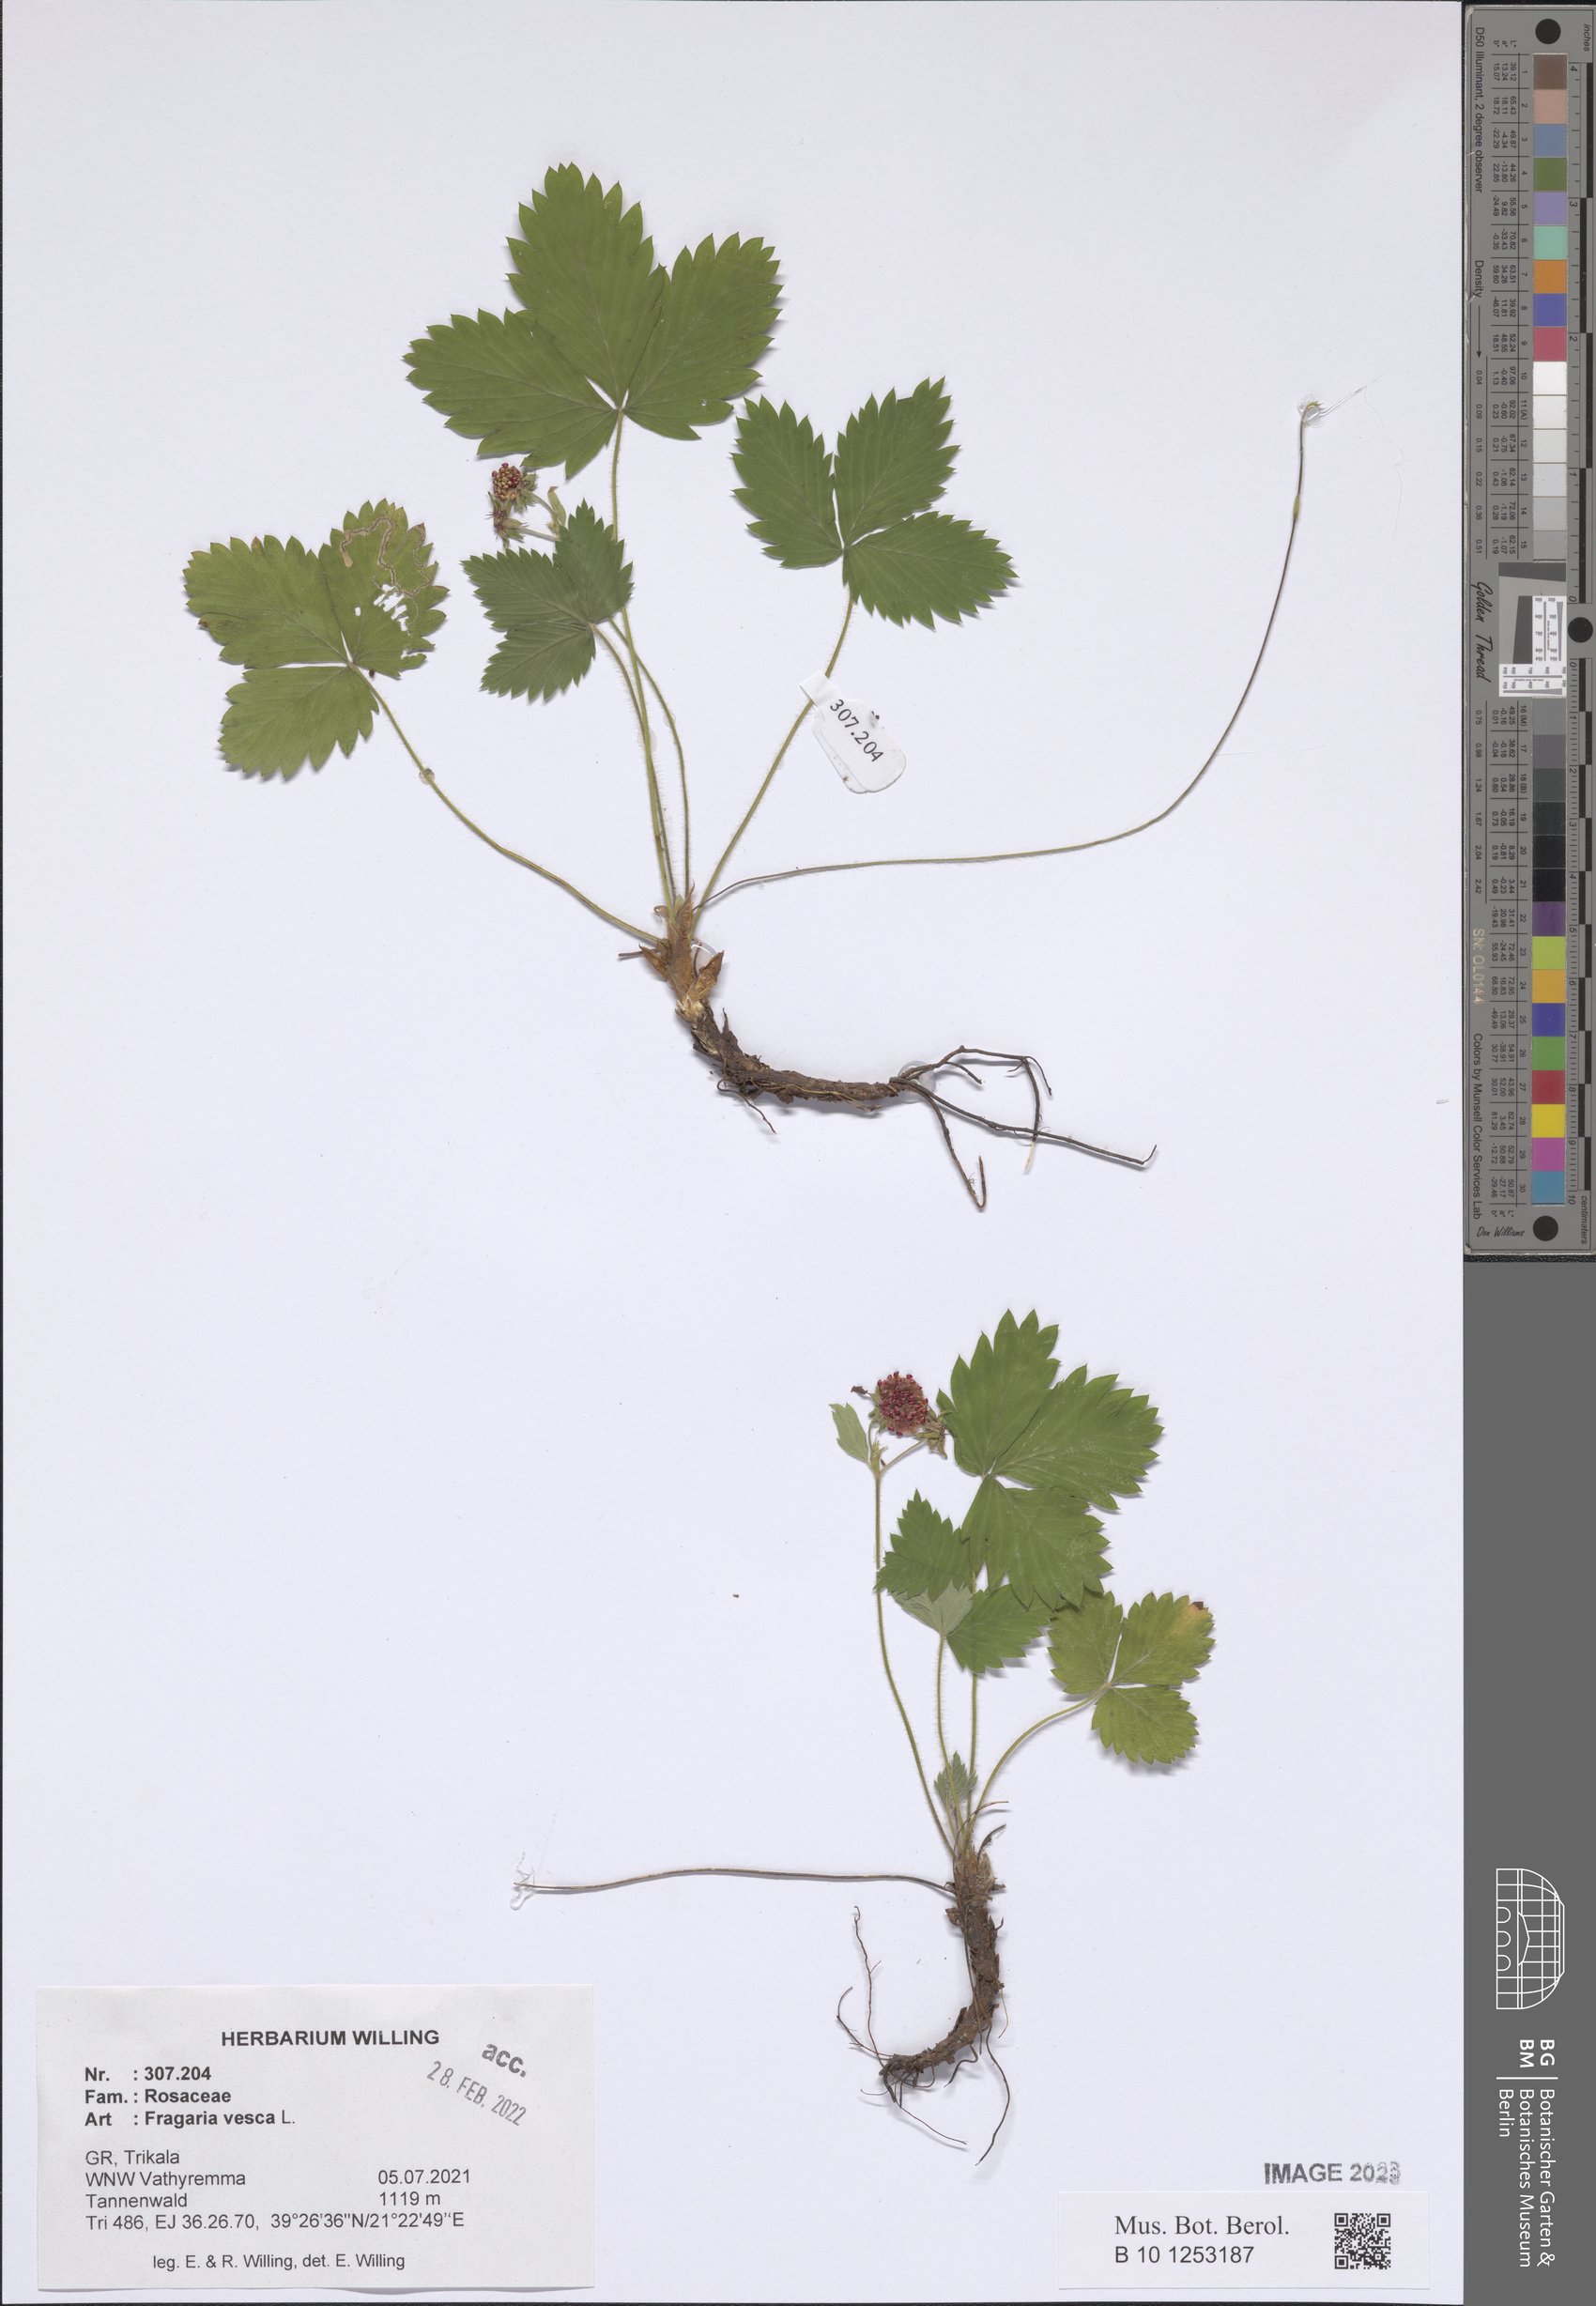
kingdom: Plantae
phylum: Tracheophyta
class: Magnoliopsida
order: Rosales
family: Rosaceae
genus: Fragaria
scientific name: Fragaria vesca
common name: Wild strawberry
